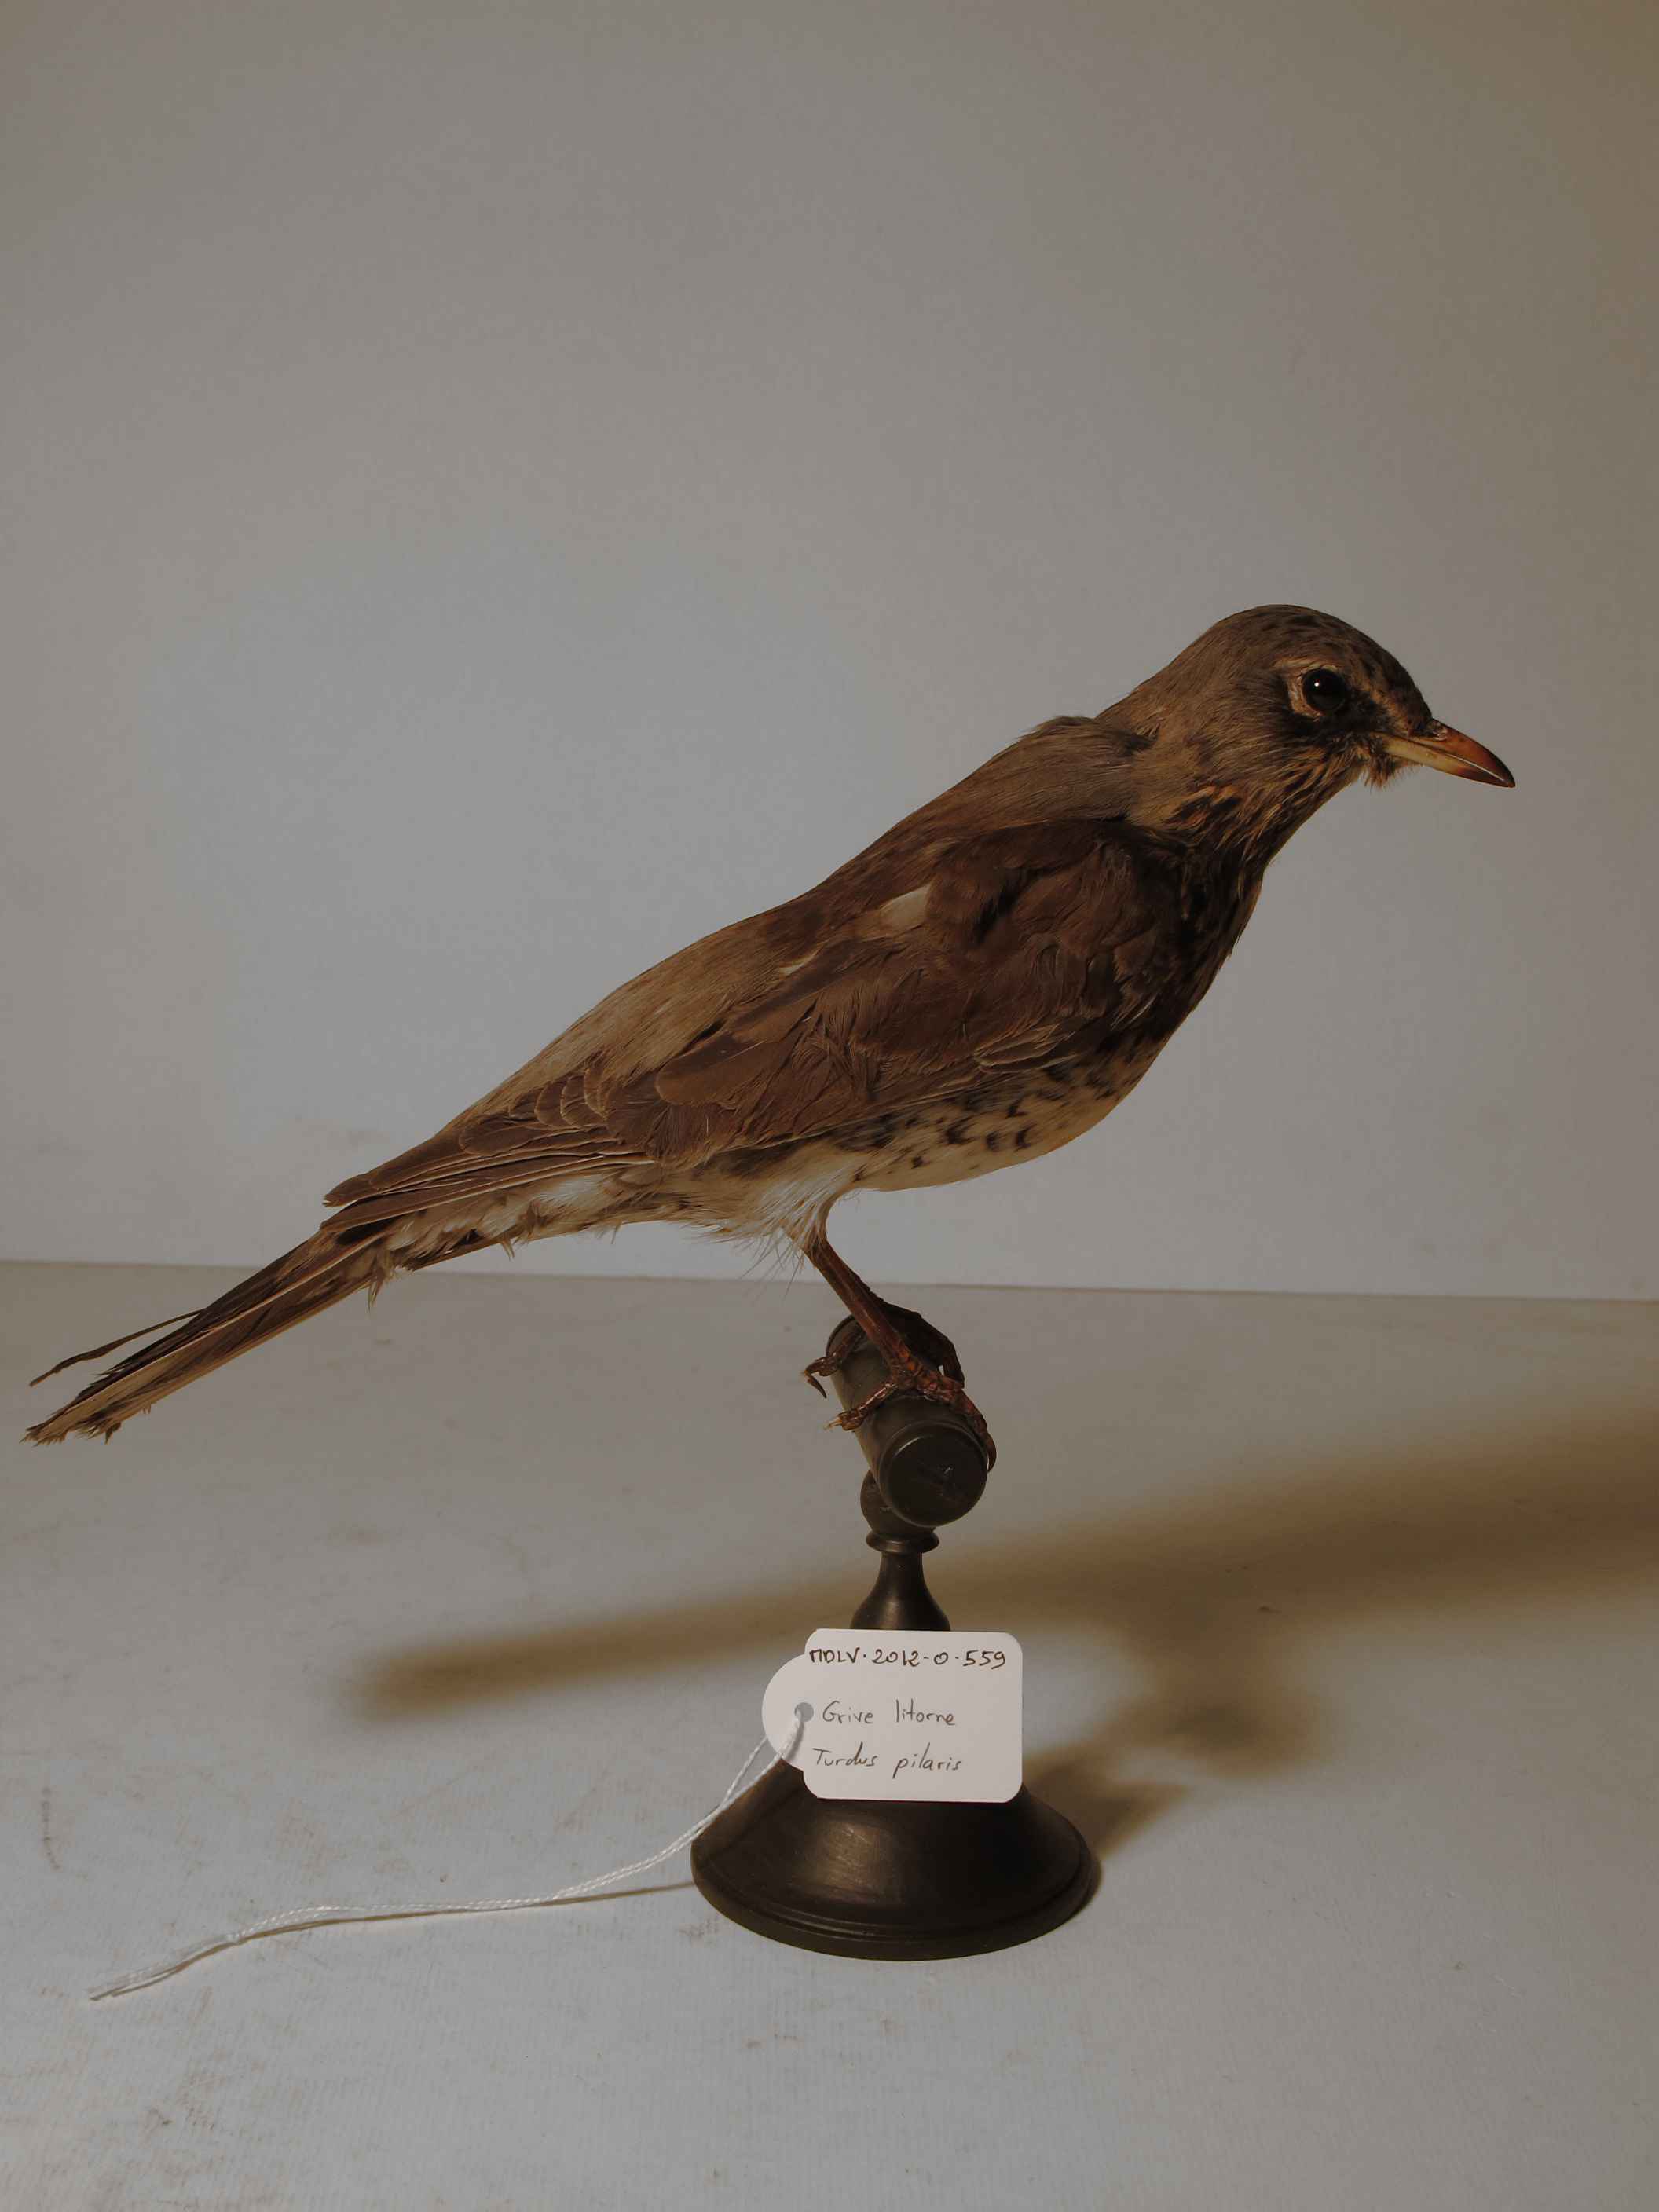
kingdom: Animalia
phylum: Chordata
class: Aves
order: Passeriformes
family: Turdidae
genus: Turdus
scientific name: Turdus pilaris
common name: Fieldfare
